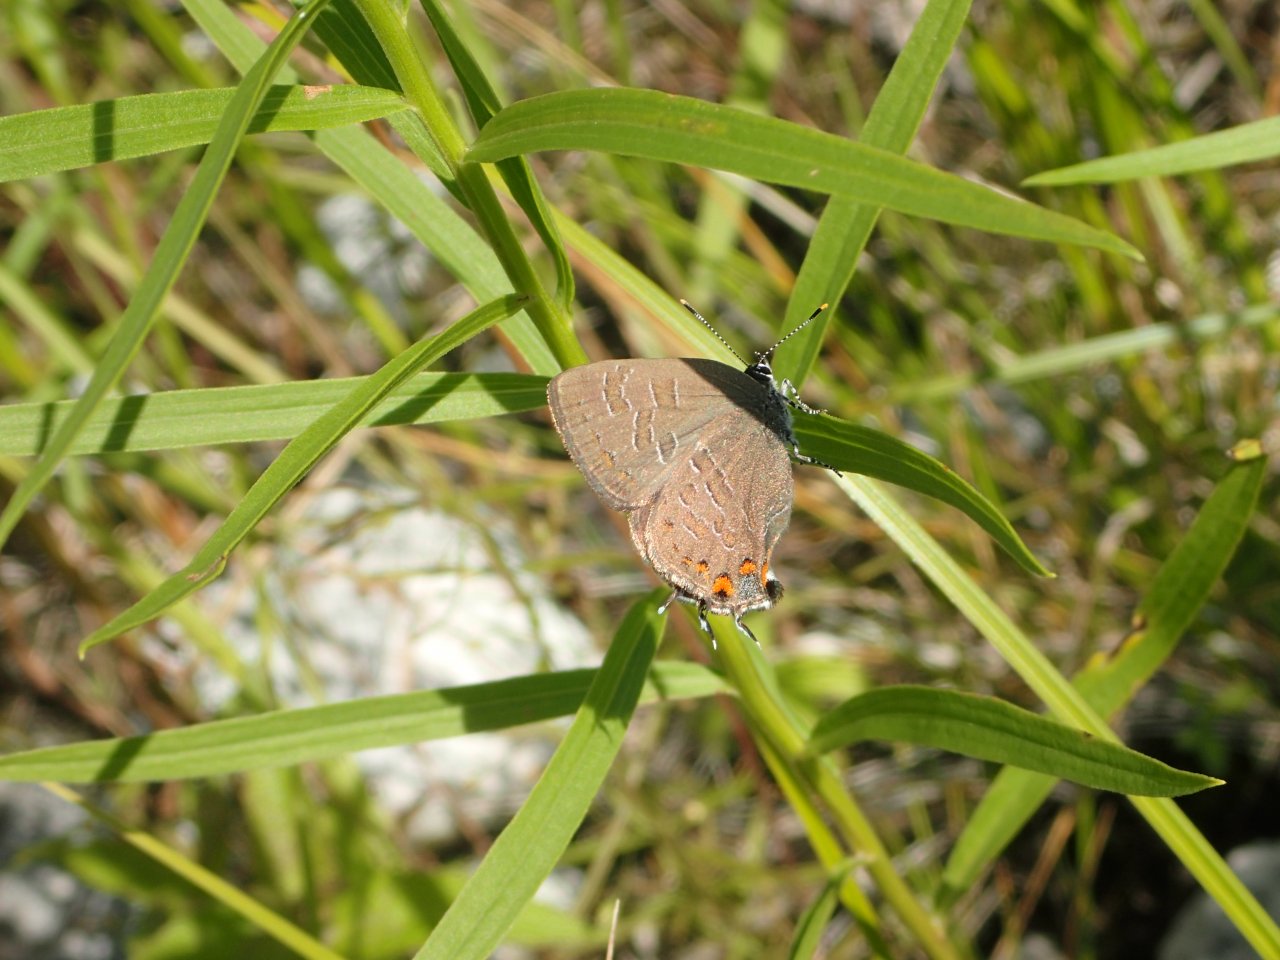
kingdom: Animalia
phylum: Arthropoda
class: Insecta
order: Lepidoptera
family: Lycaenidae
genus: Satyrium
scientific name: Satyrium liparops
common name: Striped Hairstreak
